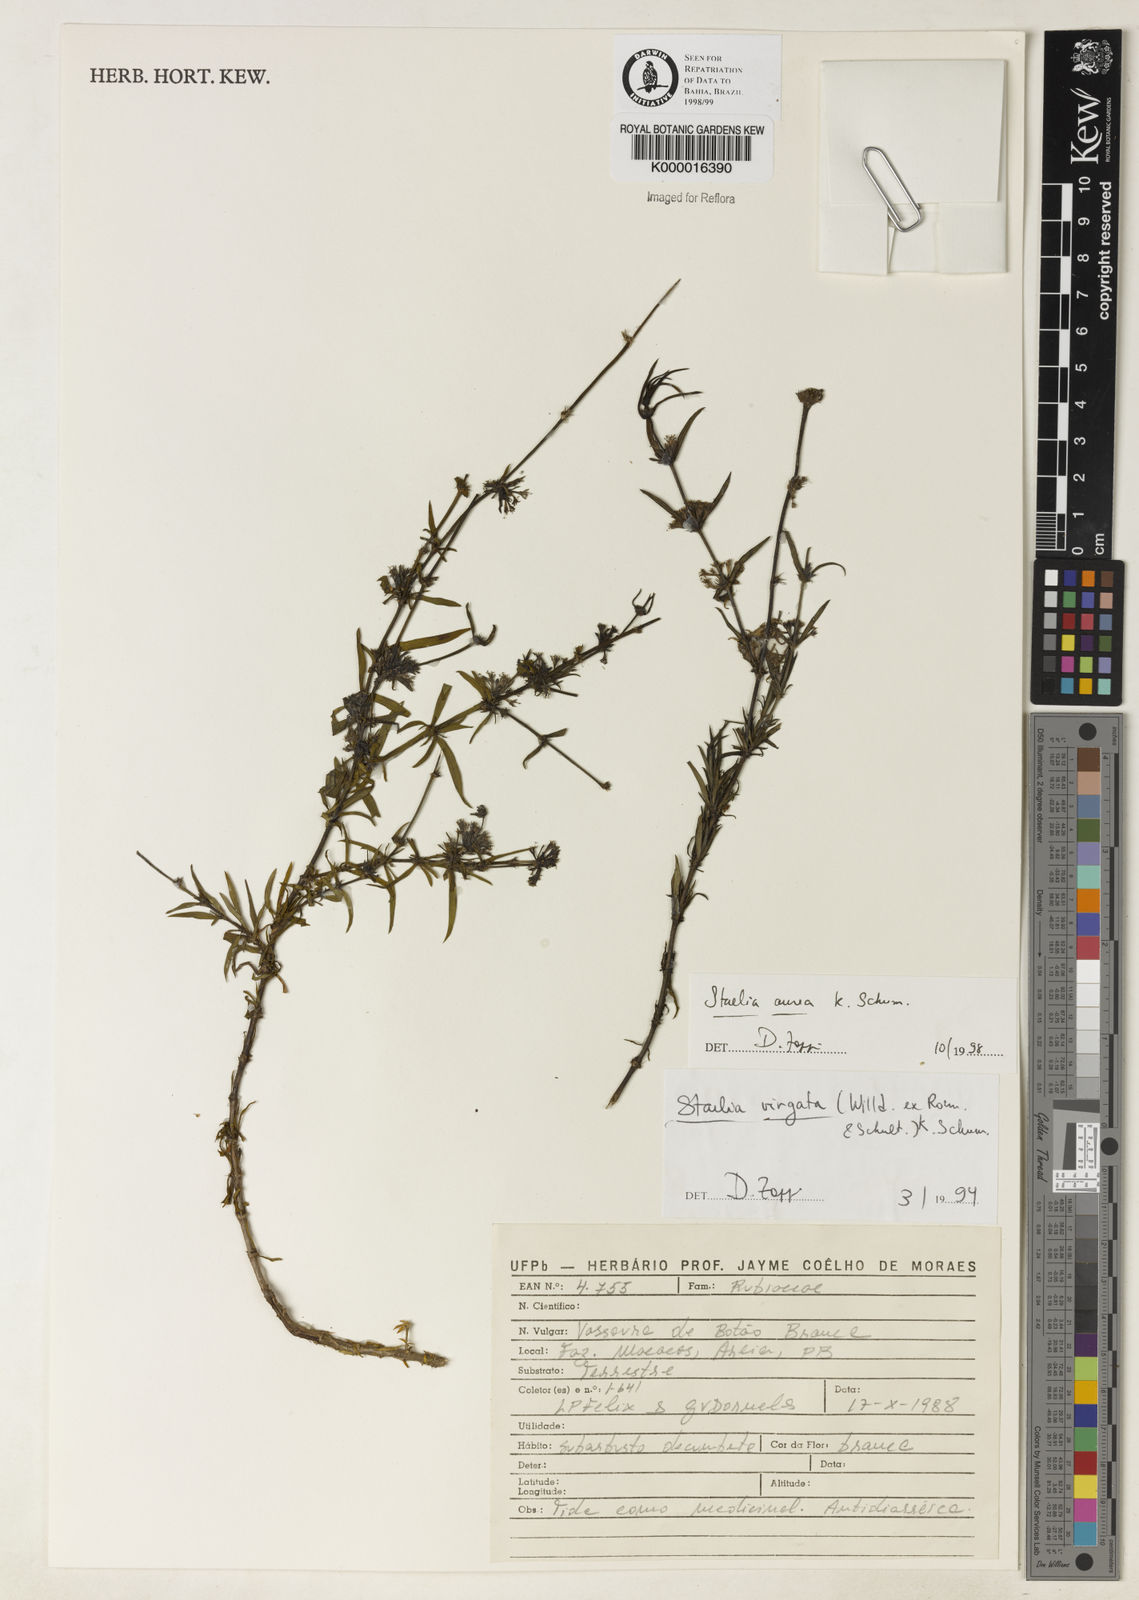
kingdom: Plantae
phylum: Tracheophyta
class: Magnoliopsida
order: Gentianales
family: Rubiaceae
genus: Staelia
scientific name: Staelia aurea
